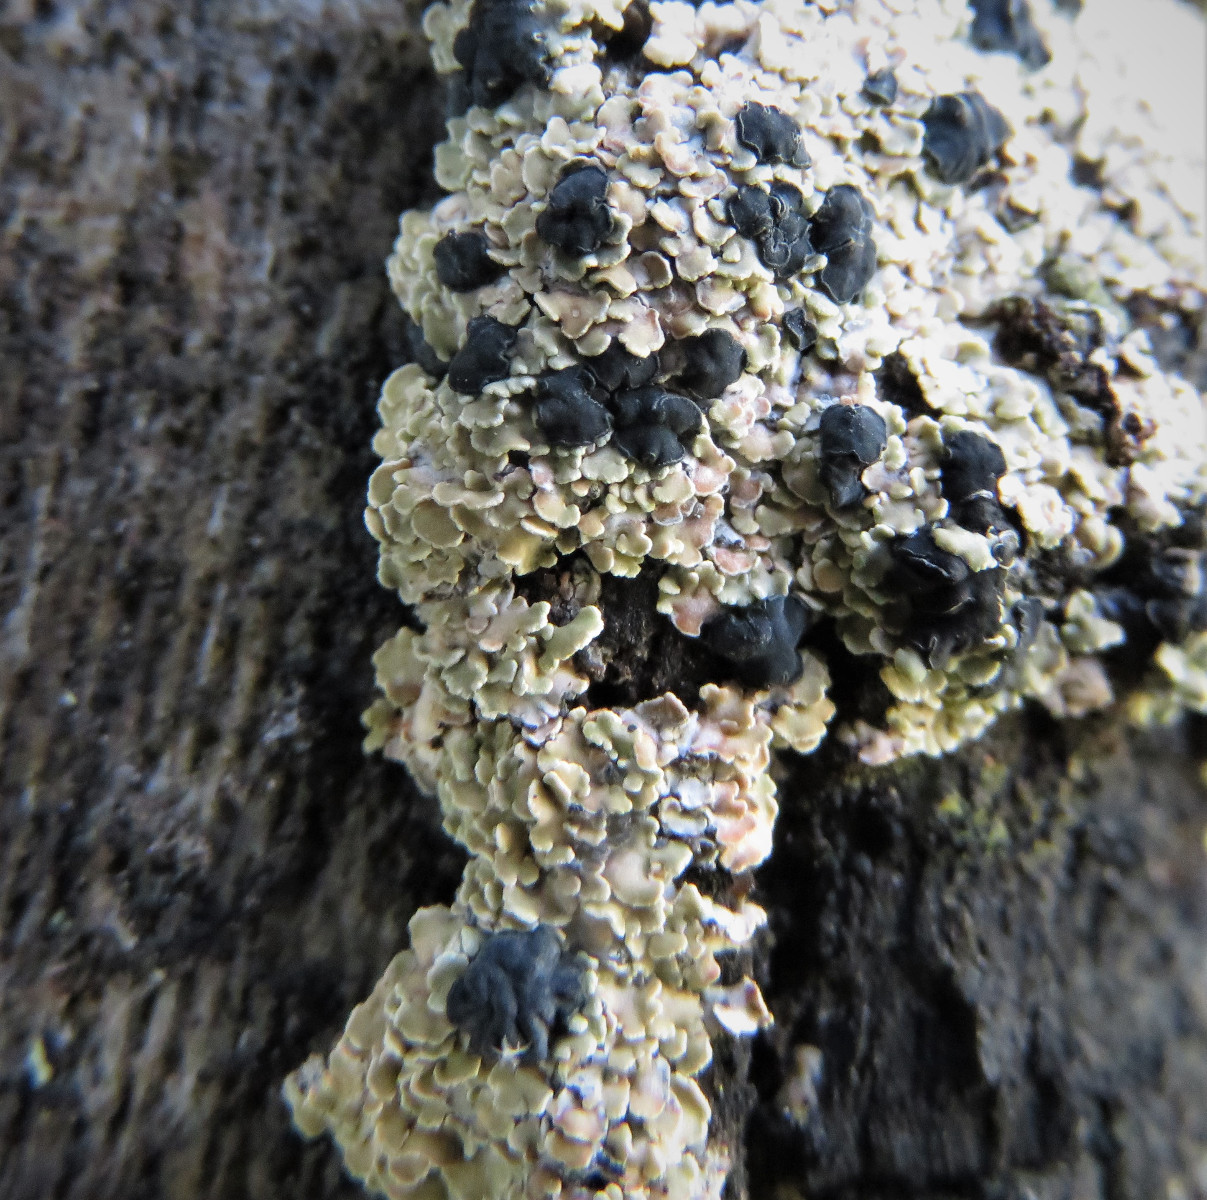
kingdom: Fungi
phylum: Ascomycota
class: Lecanoromycetes
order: Umbilicariales
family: Ophioparmaceae
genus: Hypocenomyce
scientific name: Hypocenomyce scalaris
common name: småskællet muslinglav
